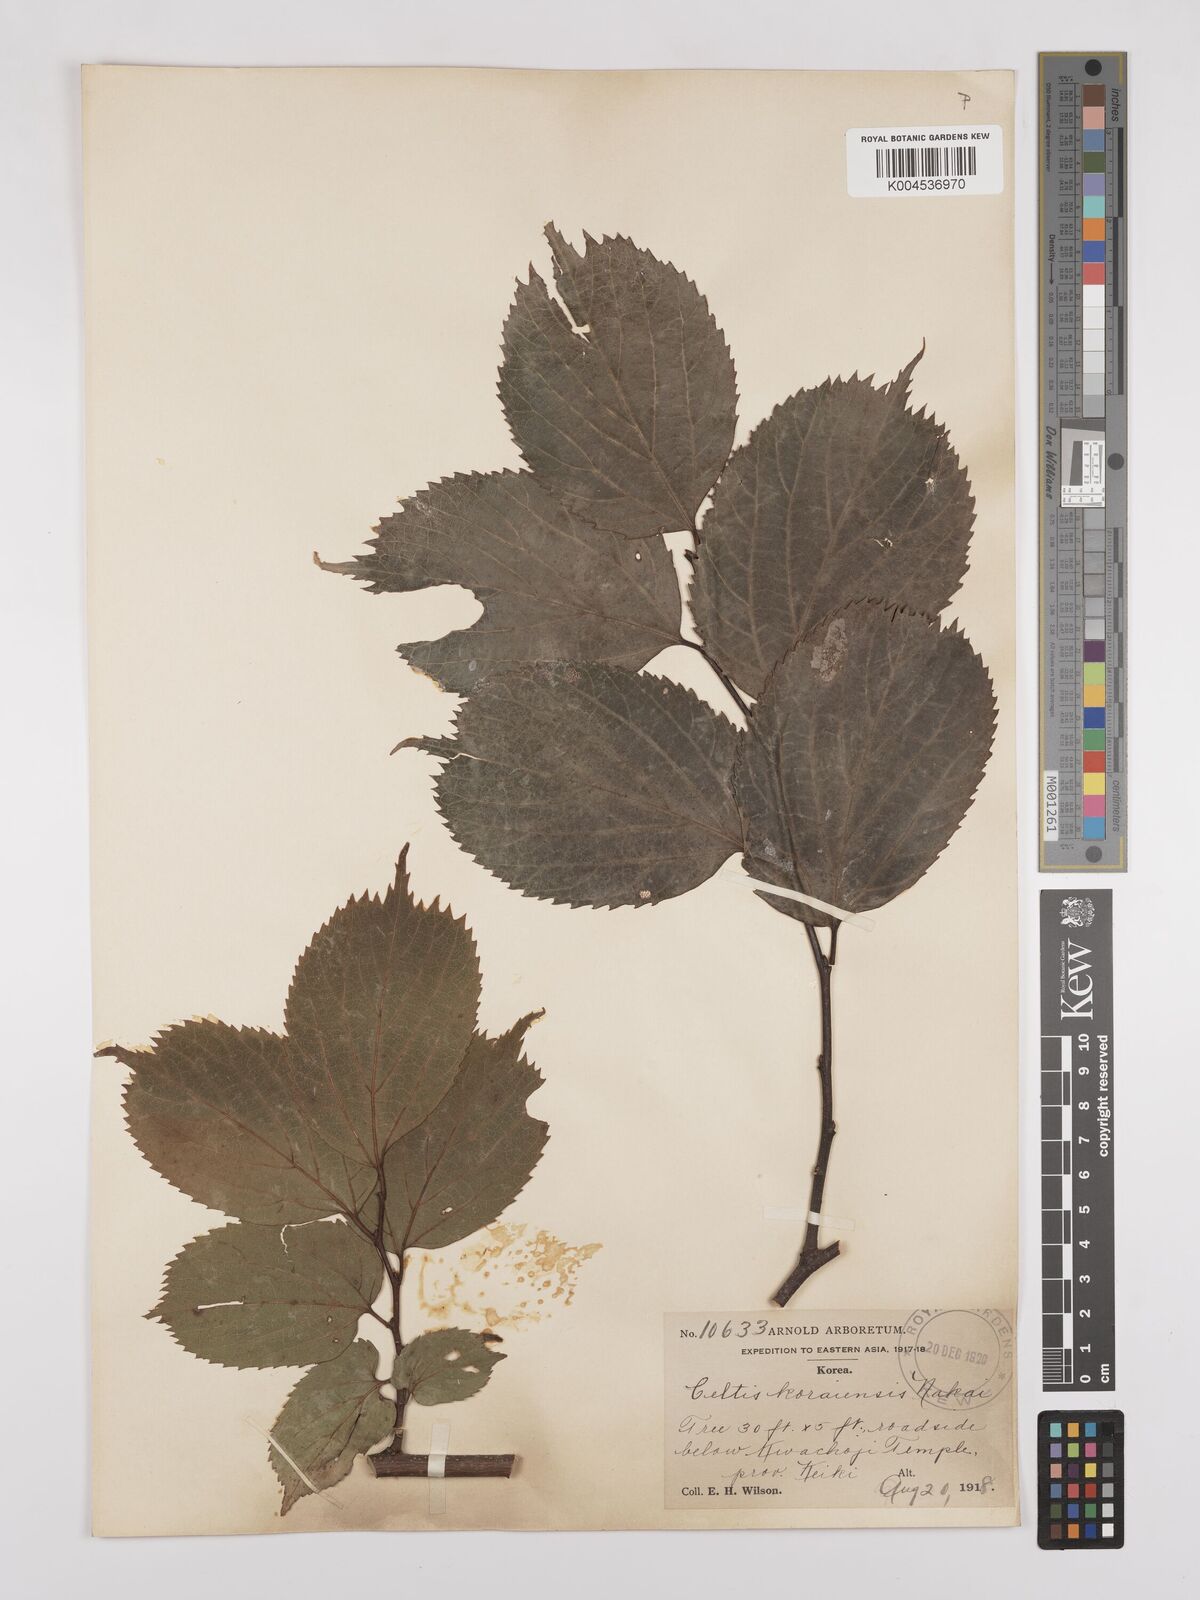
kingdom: Plantae
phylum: Tracheophyta
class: Magnoliopsida
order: Rosales
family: Cannabaceae
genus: Celtis
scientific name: Celtis koraiensis
